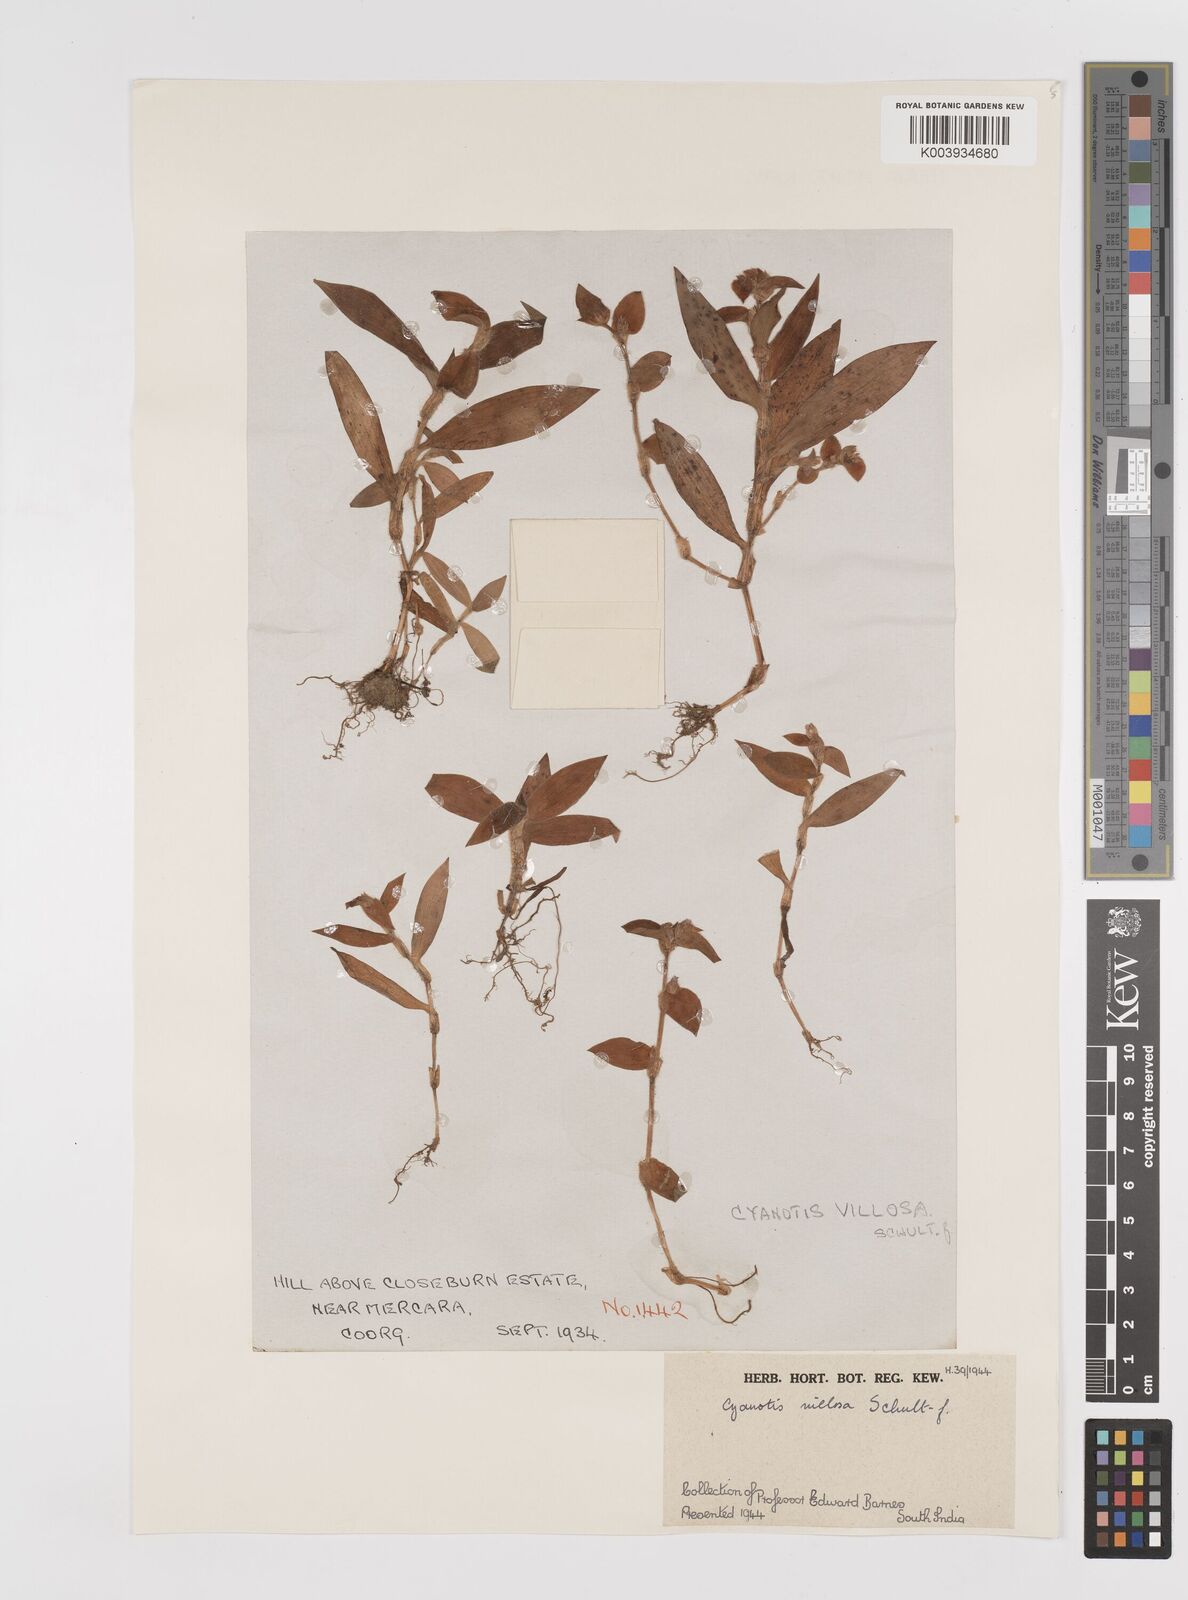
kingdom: Plantae
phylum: Tracheophyta
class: Liliopsida
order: Commelinales
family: Commelinaceae
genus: Cyanotis
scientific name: Cyanotis villosa
